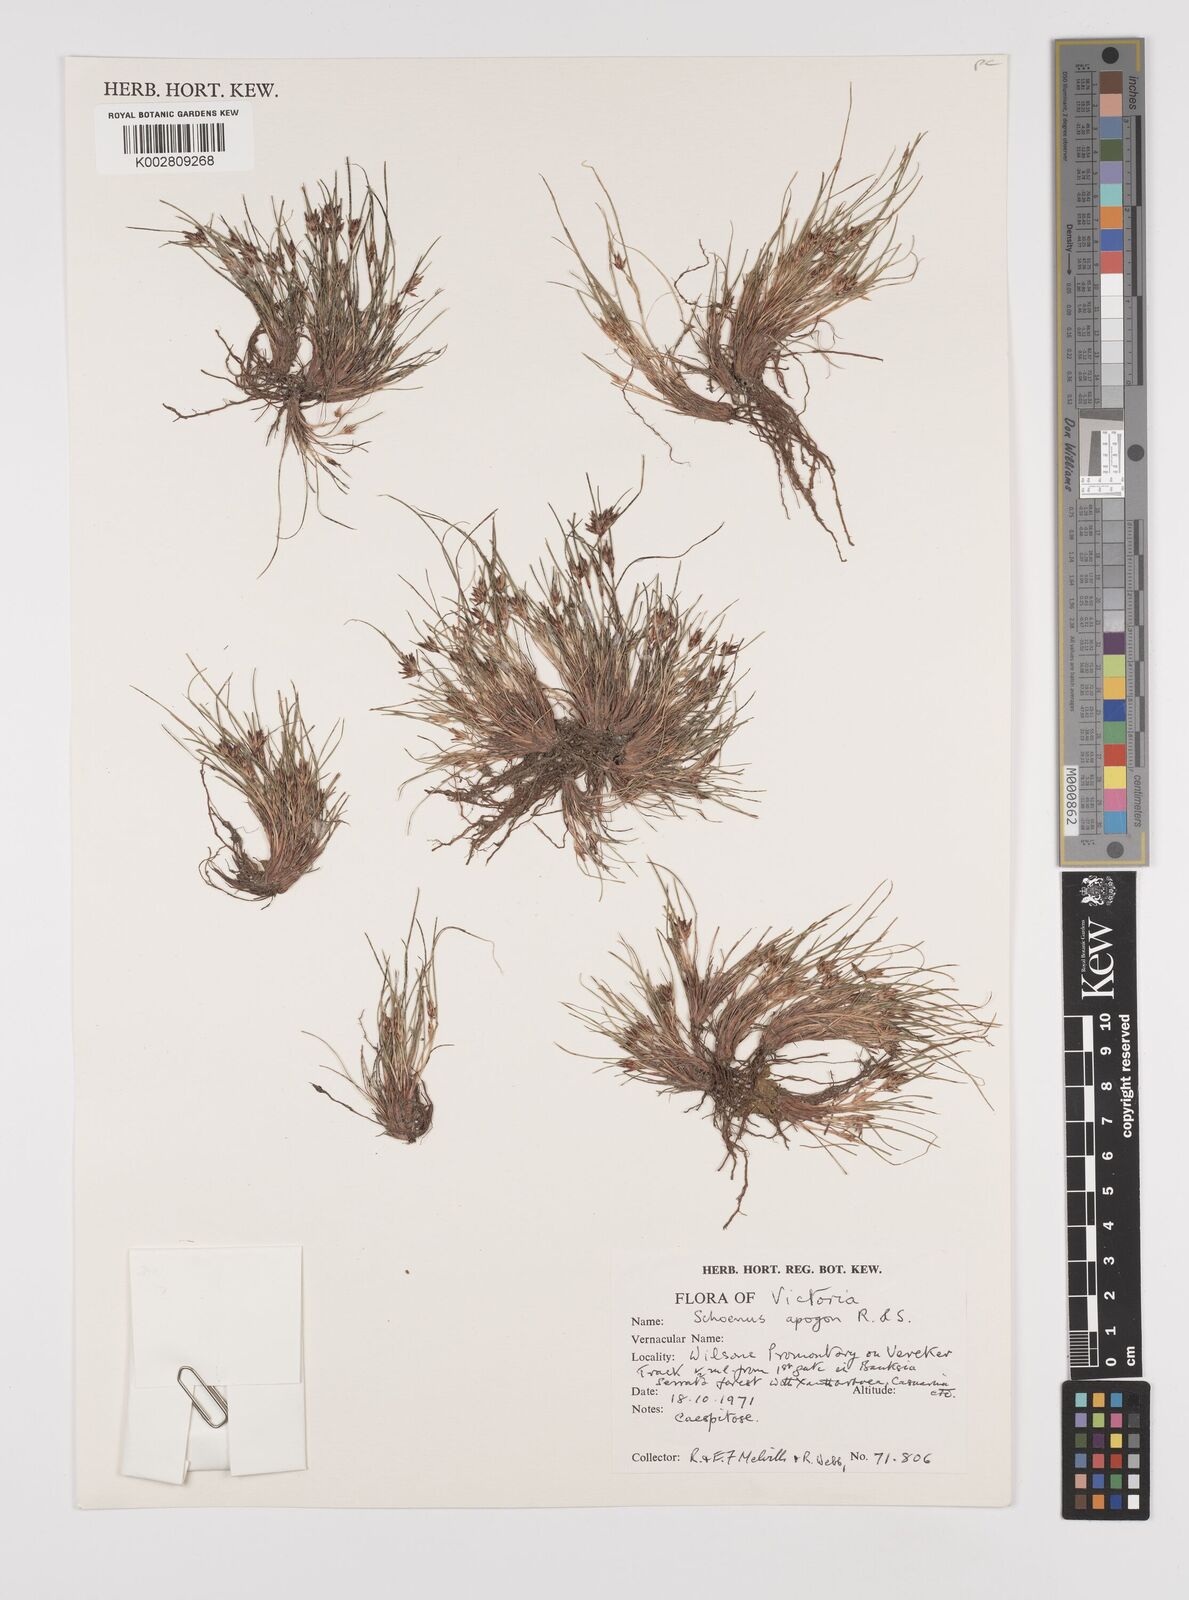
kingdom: Plantae
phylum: Tracheophyta
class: Liliopsida
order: Poales
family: Cyperaceae
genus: Schoenus
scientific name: Schoenus apogon
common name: Smooth bogrush
